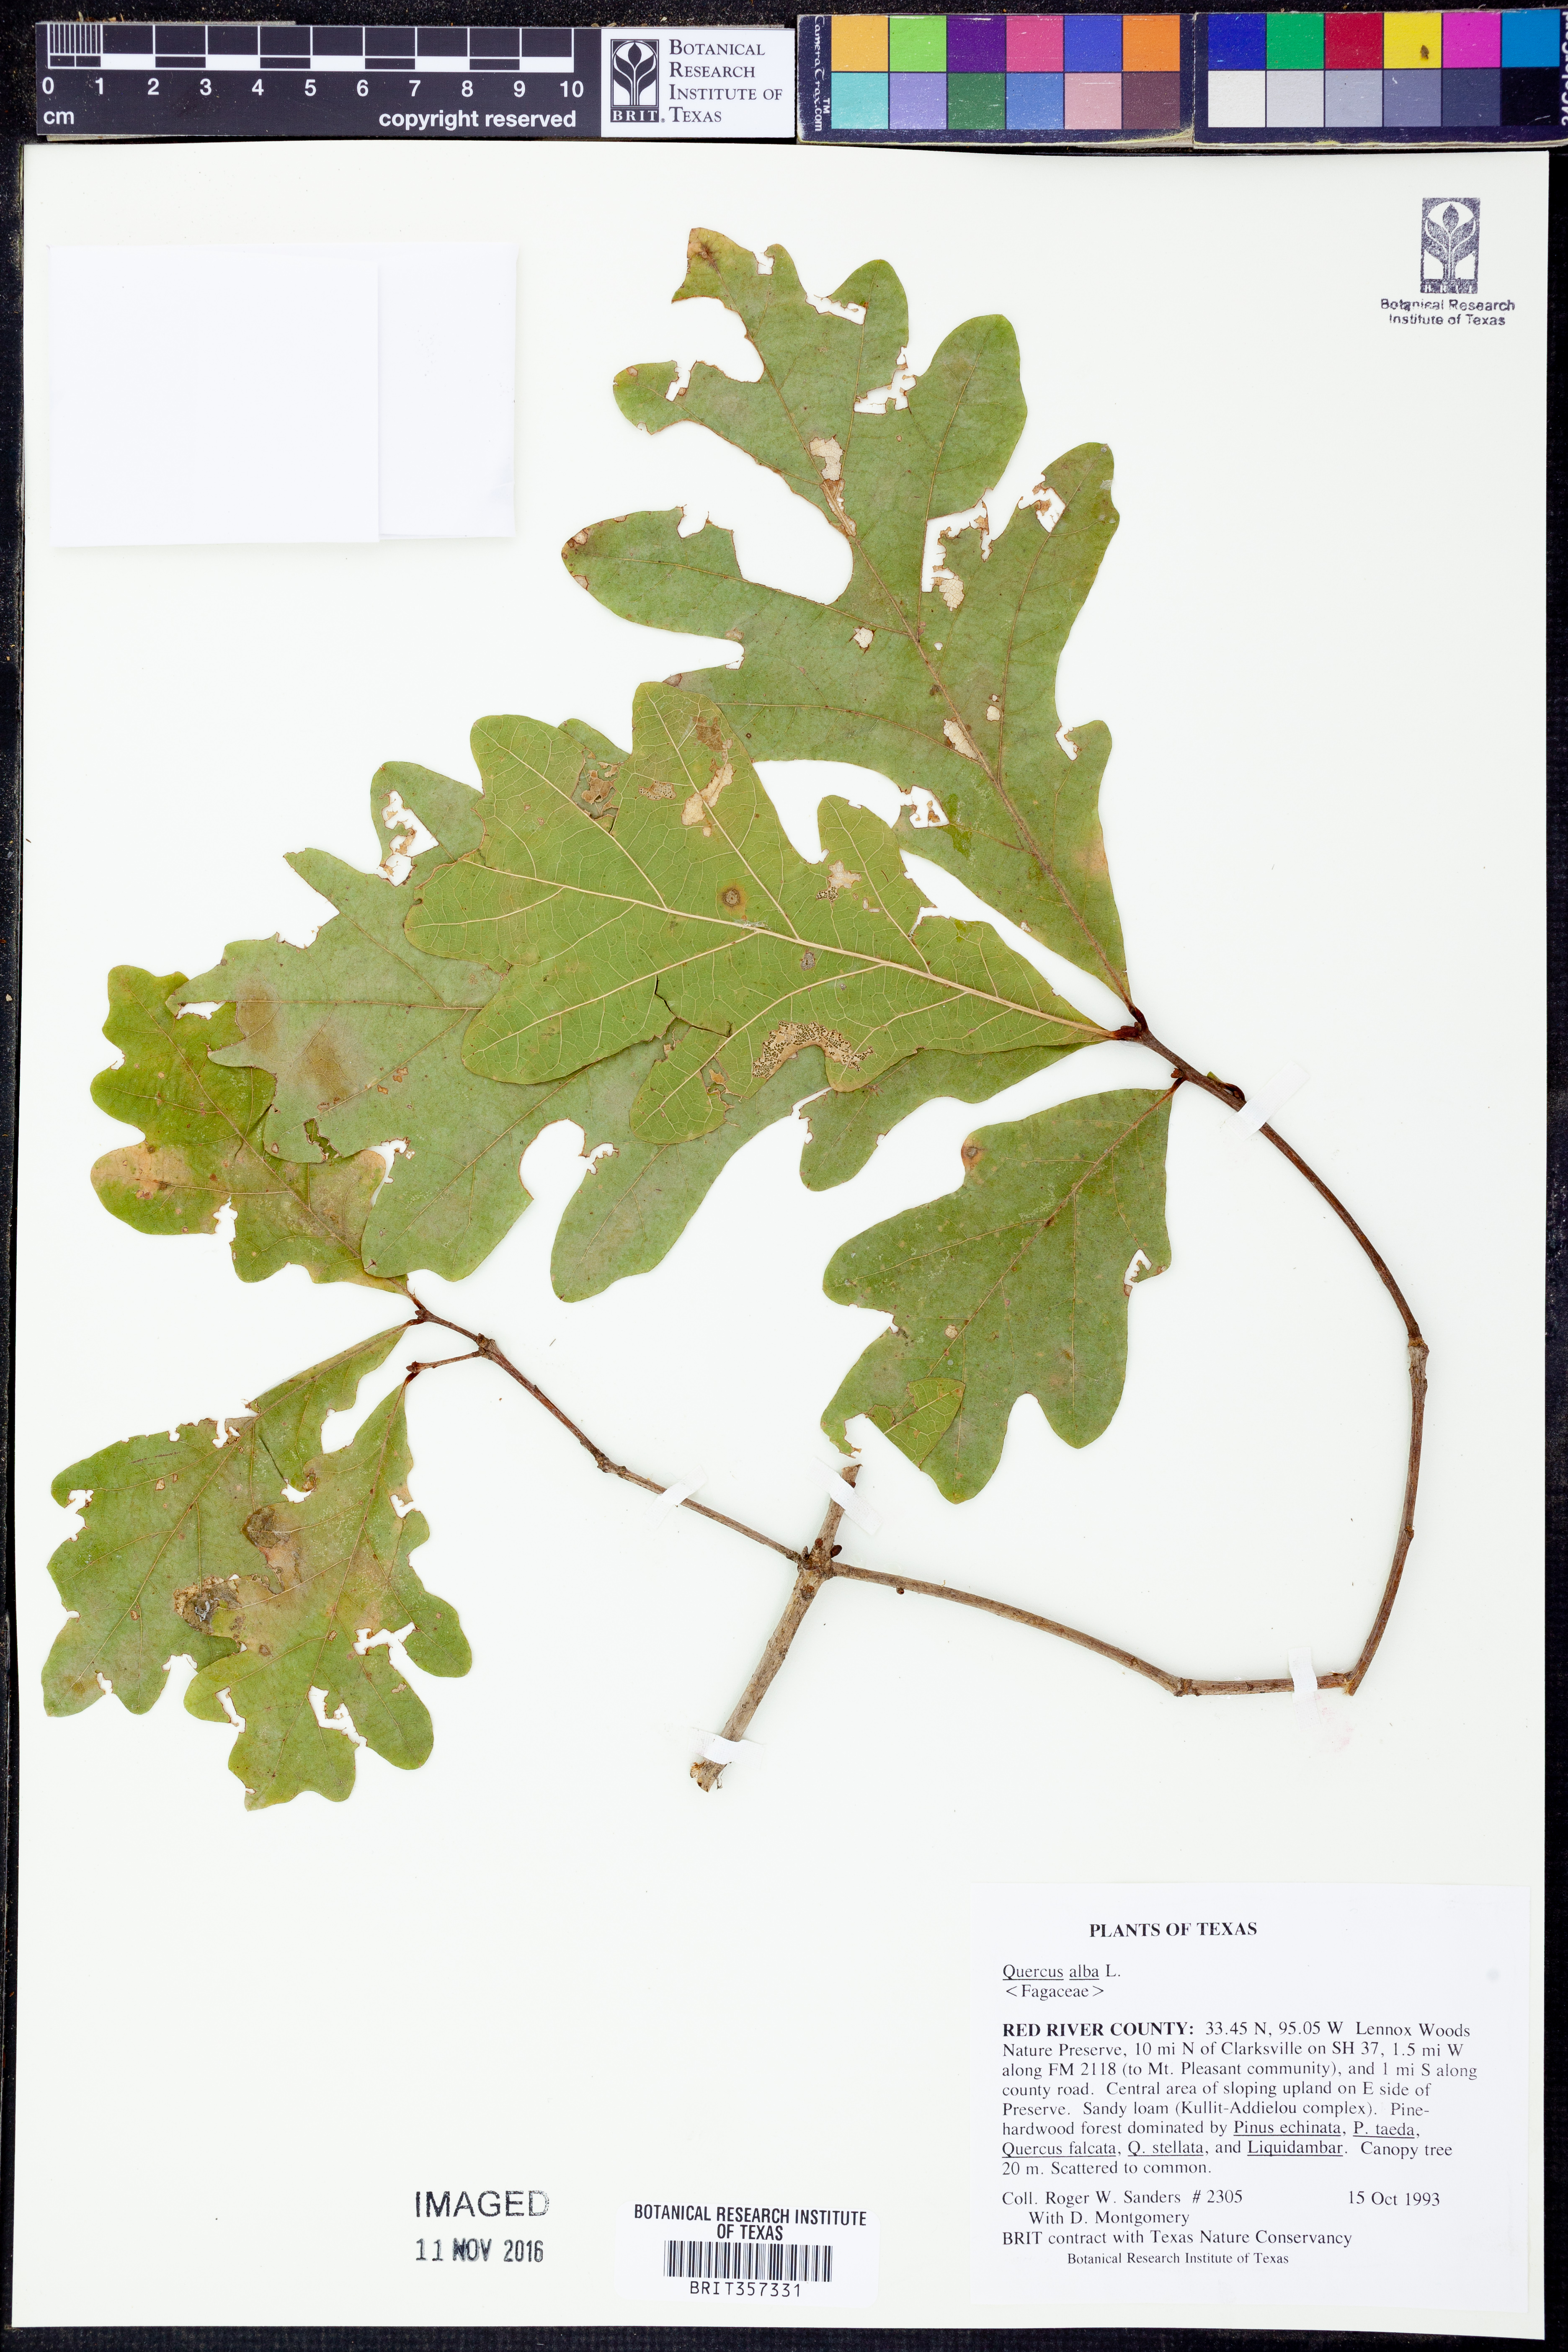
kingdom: Plantae
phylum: Tracheophyta
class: Magnoliopsida
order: Fagales
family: Fagaceae
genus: Quercus
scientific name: Quercus alba
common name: White oak
